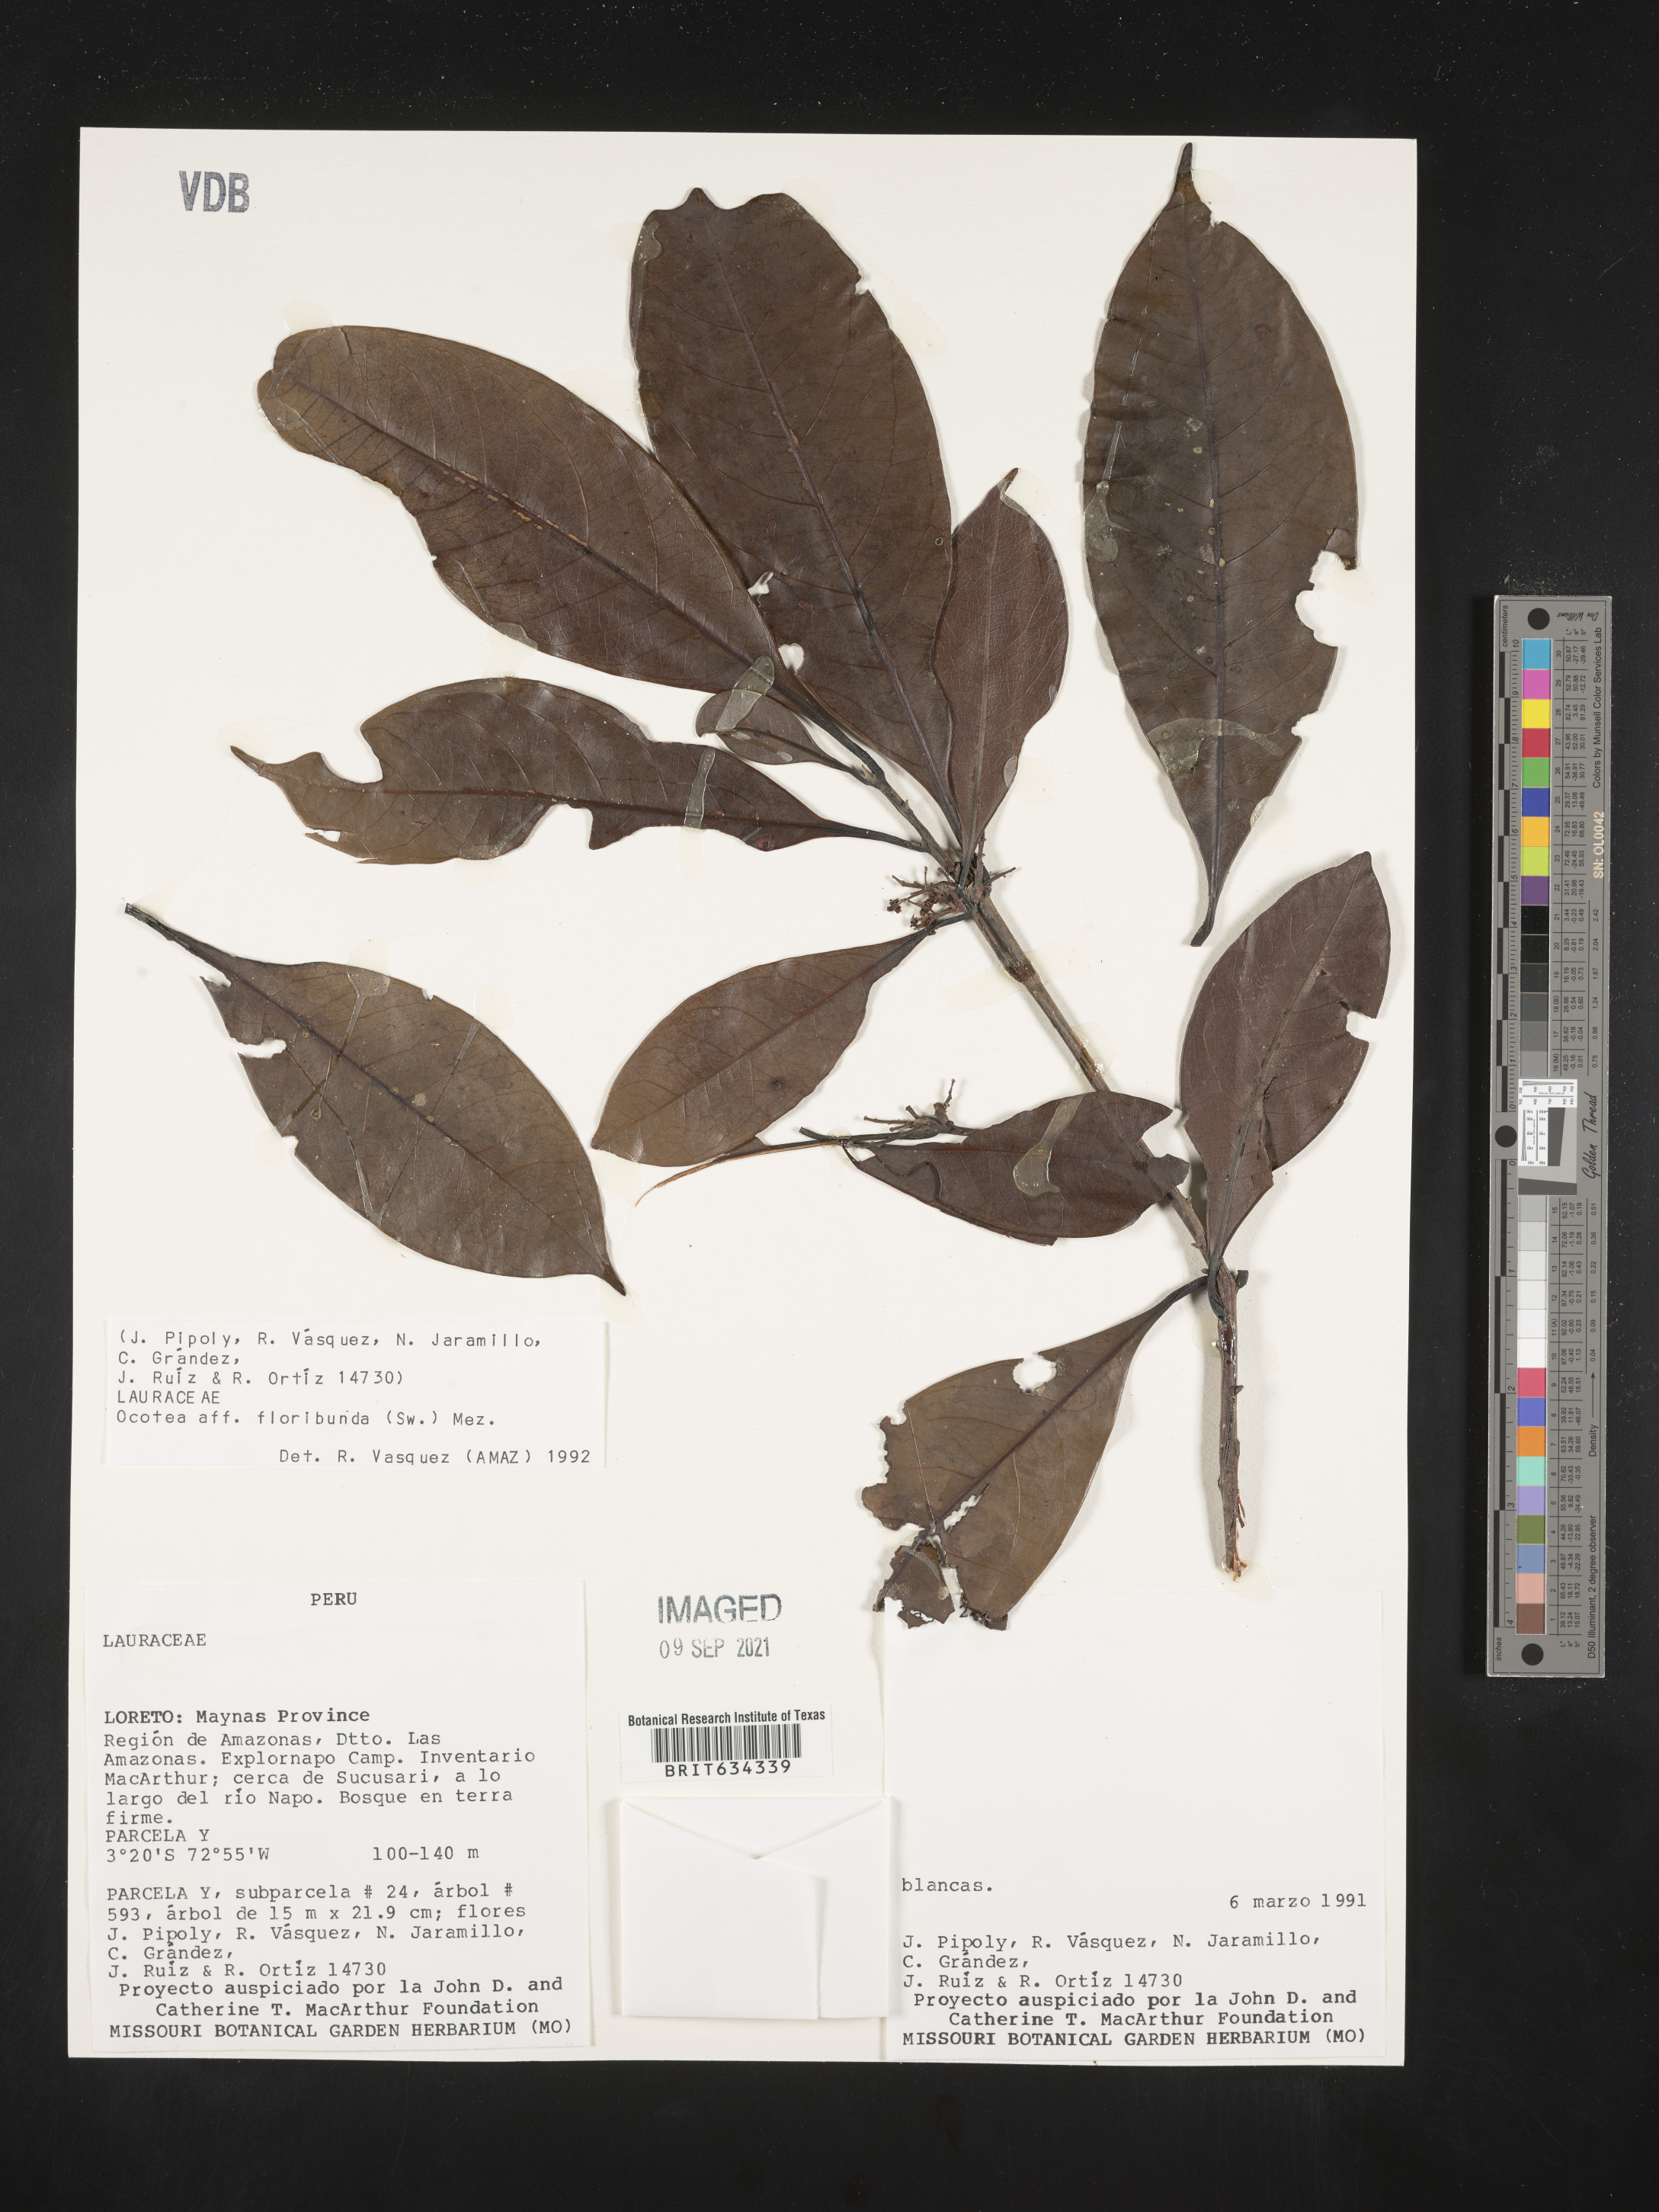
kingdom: Plantae
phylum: Tracheophyta
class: Magnoliopsida
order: Laurales
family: Lauraceae
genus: Ocotea
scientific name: Ocotea
